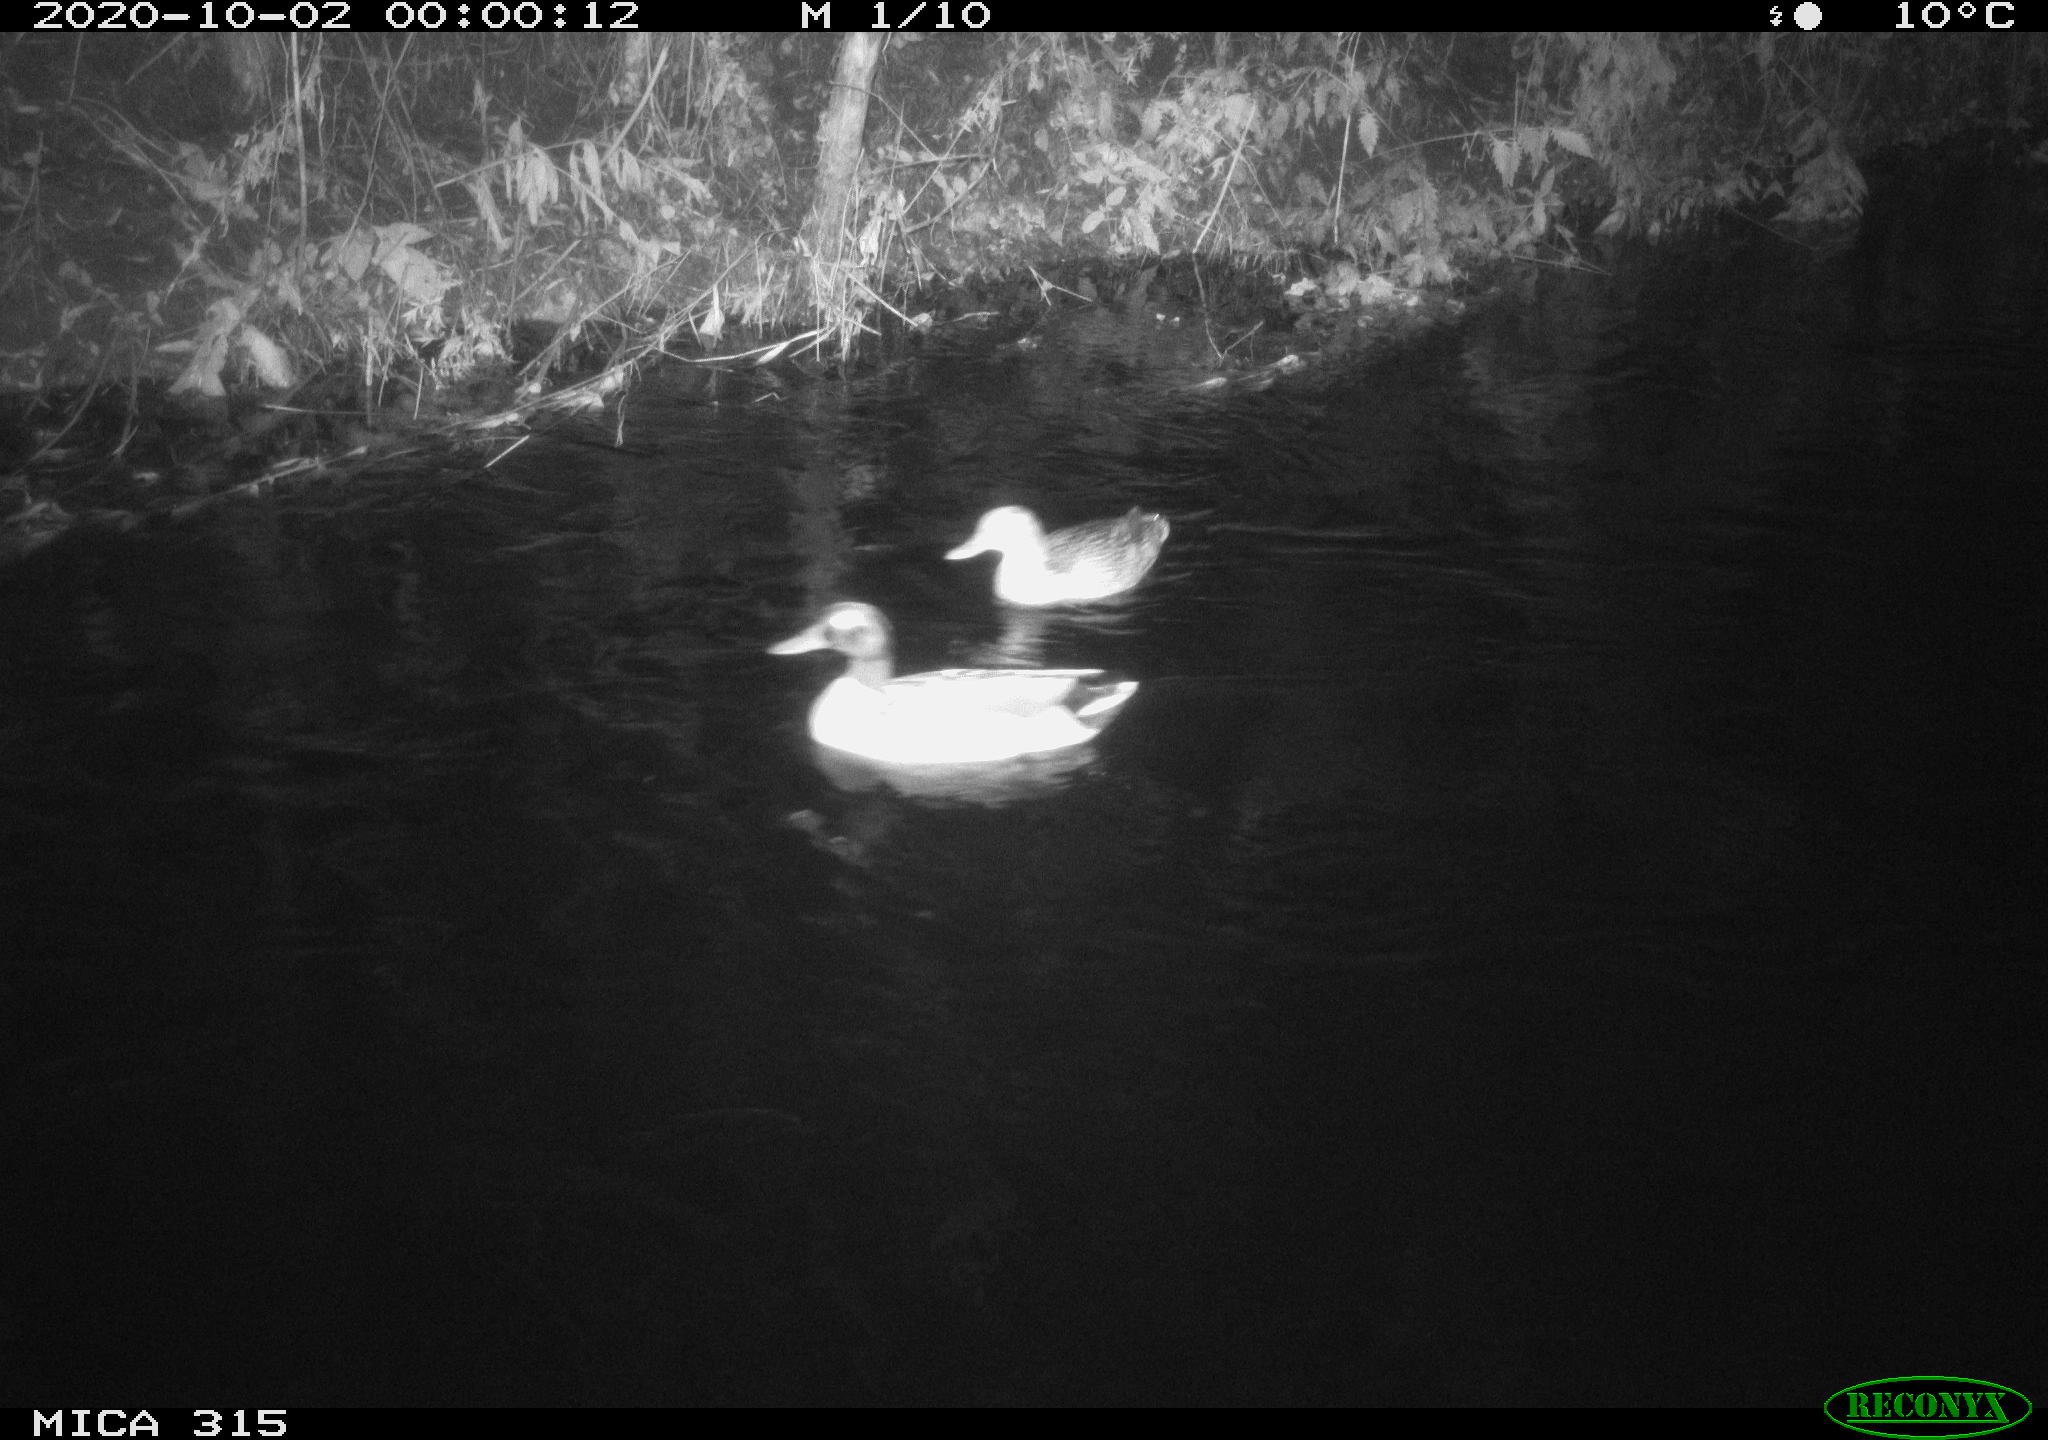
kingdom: Animalia
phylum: Chordata
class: Aves
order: Anseriformes
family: Anatidae
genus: Anas
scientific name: Anas platyrhynchos
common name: Mallard
